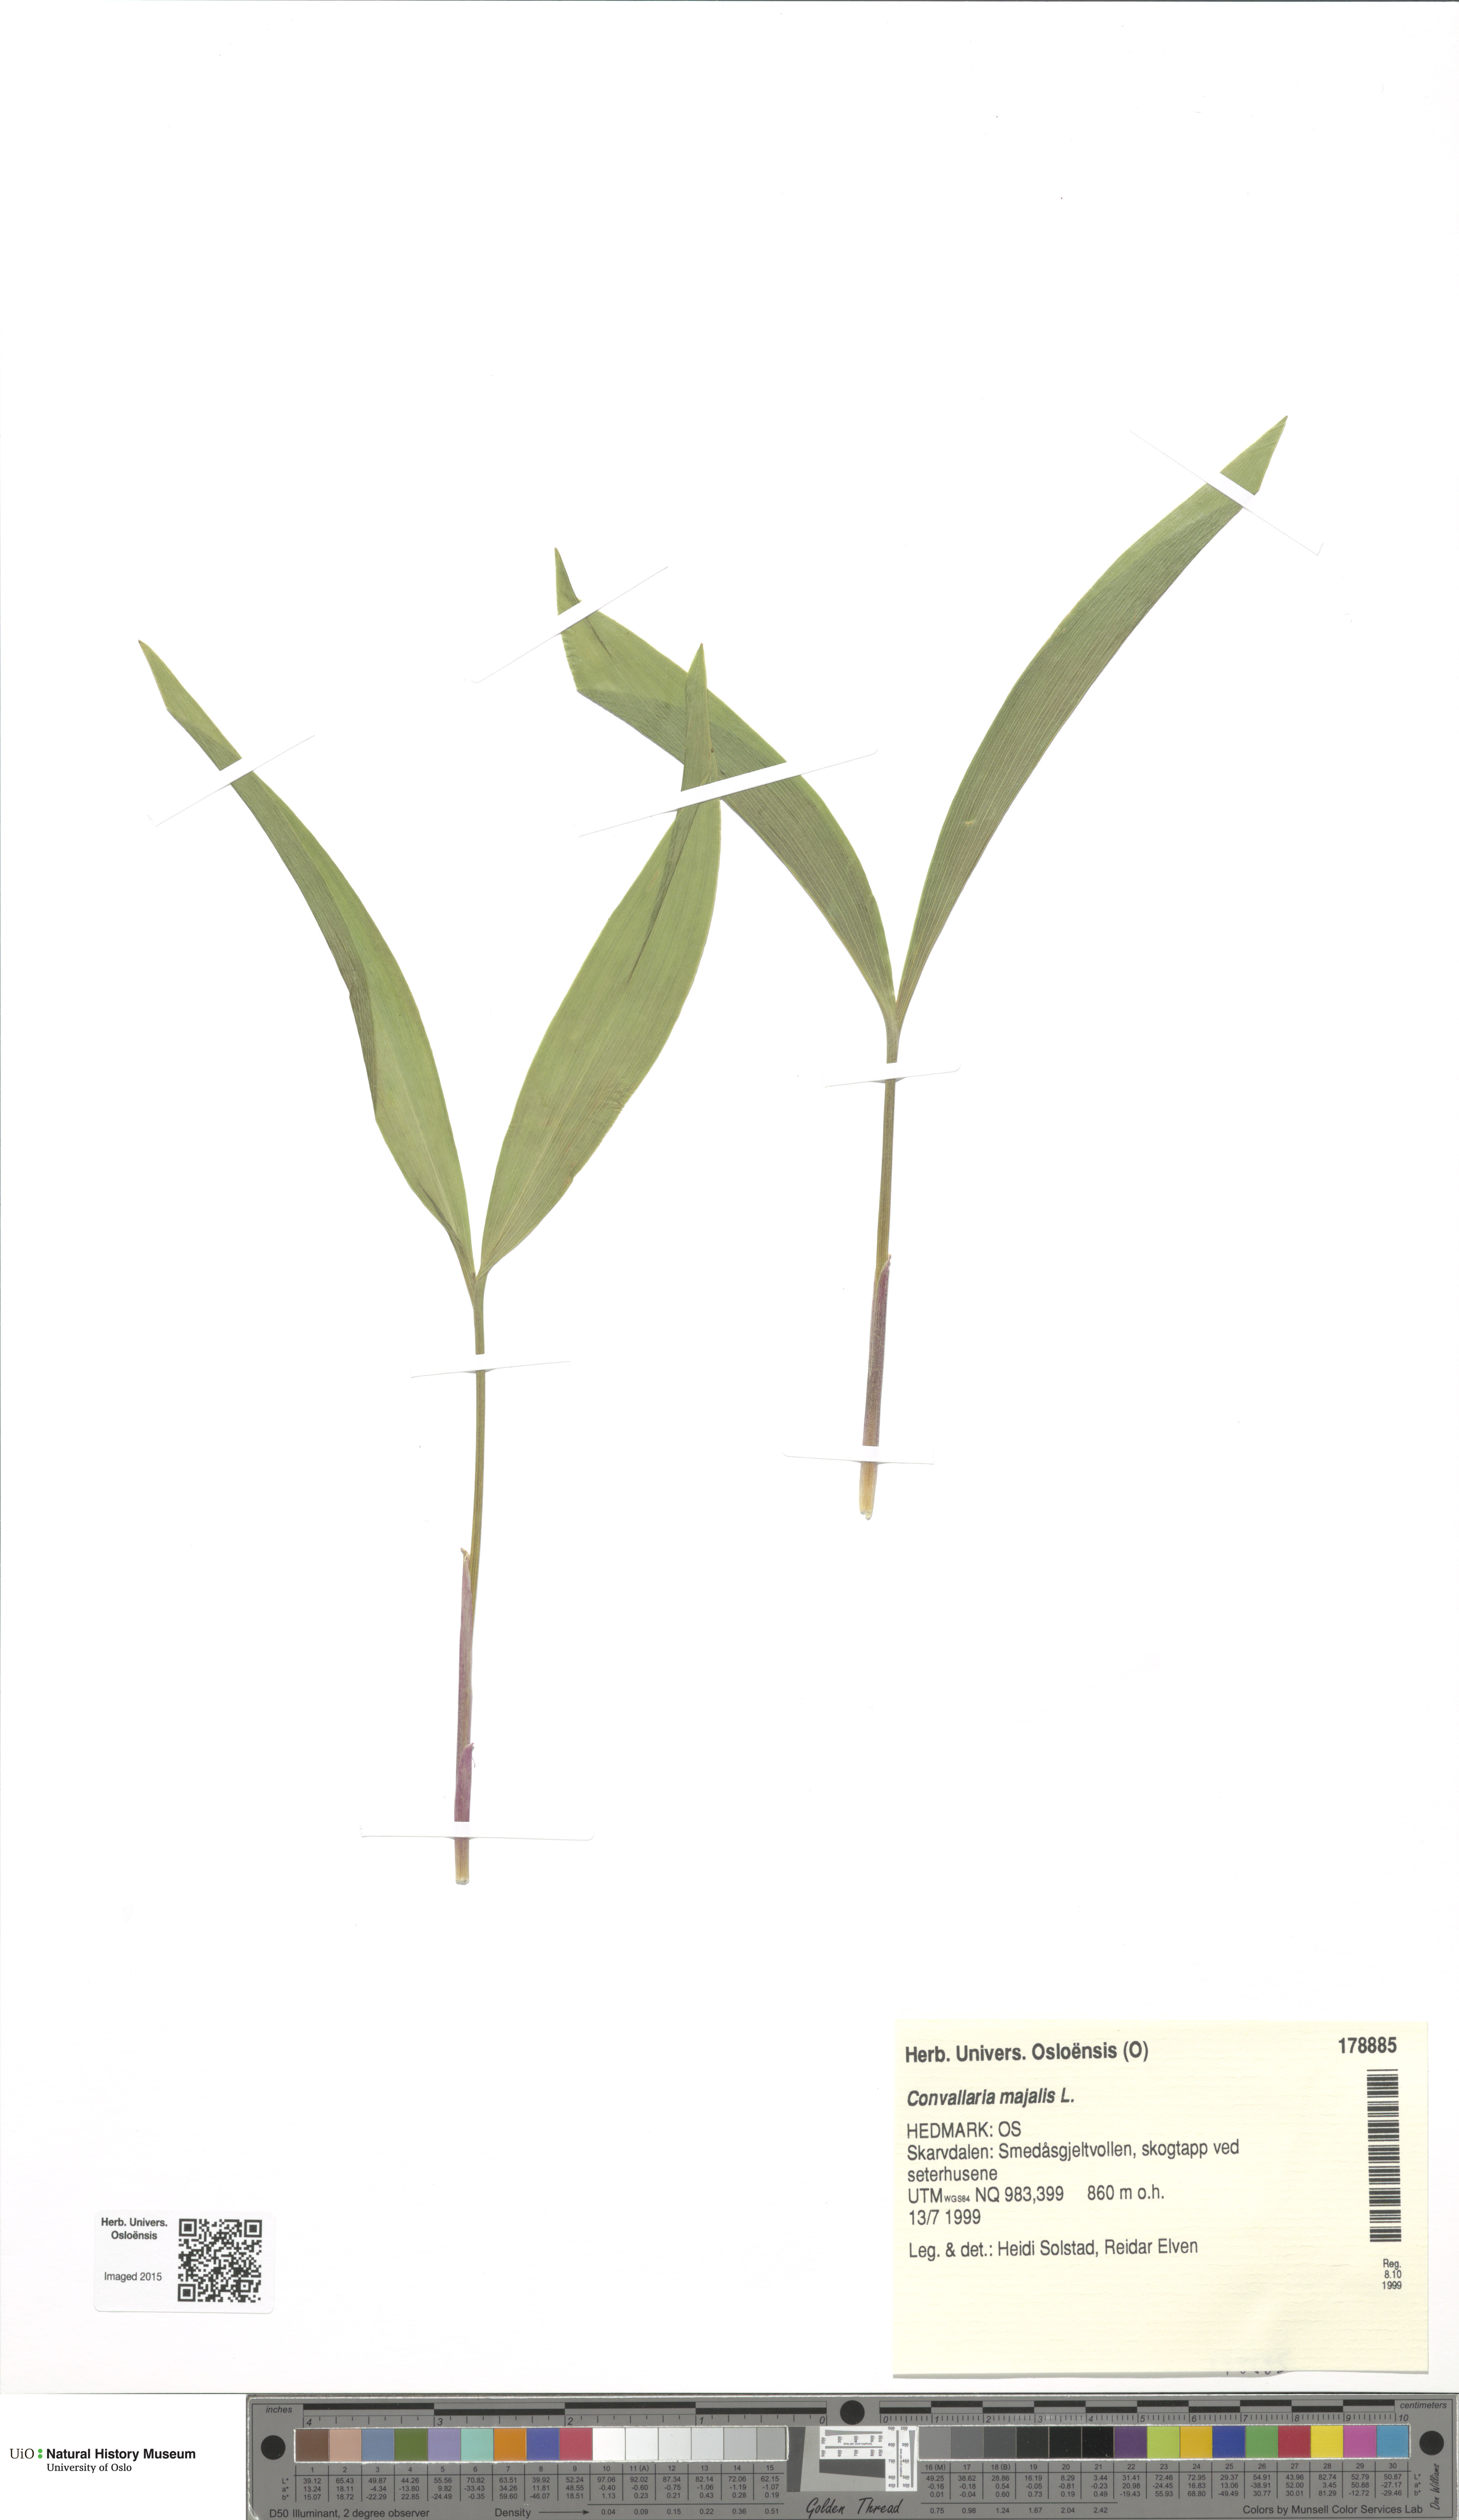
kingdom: Plantae
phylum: Tracheophyta
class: Liliopsida
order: Asparagales
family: Asparagaceae
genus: Convallaria
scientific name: Convallaria majalis
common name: Lily-of-the-valley
